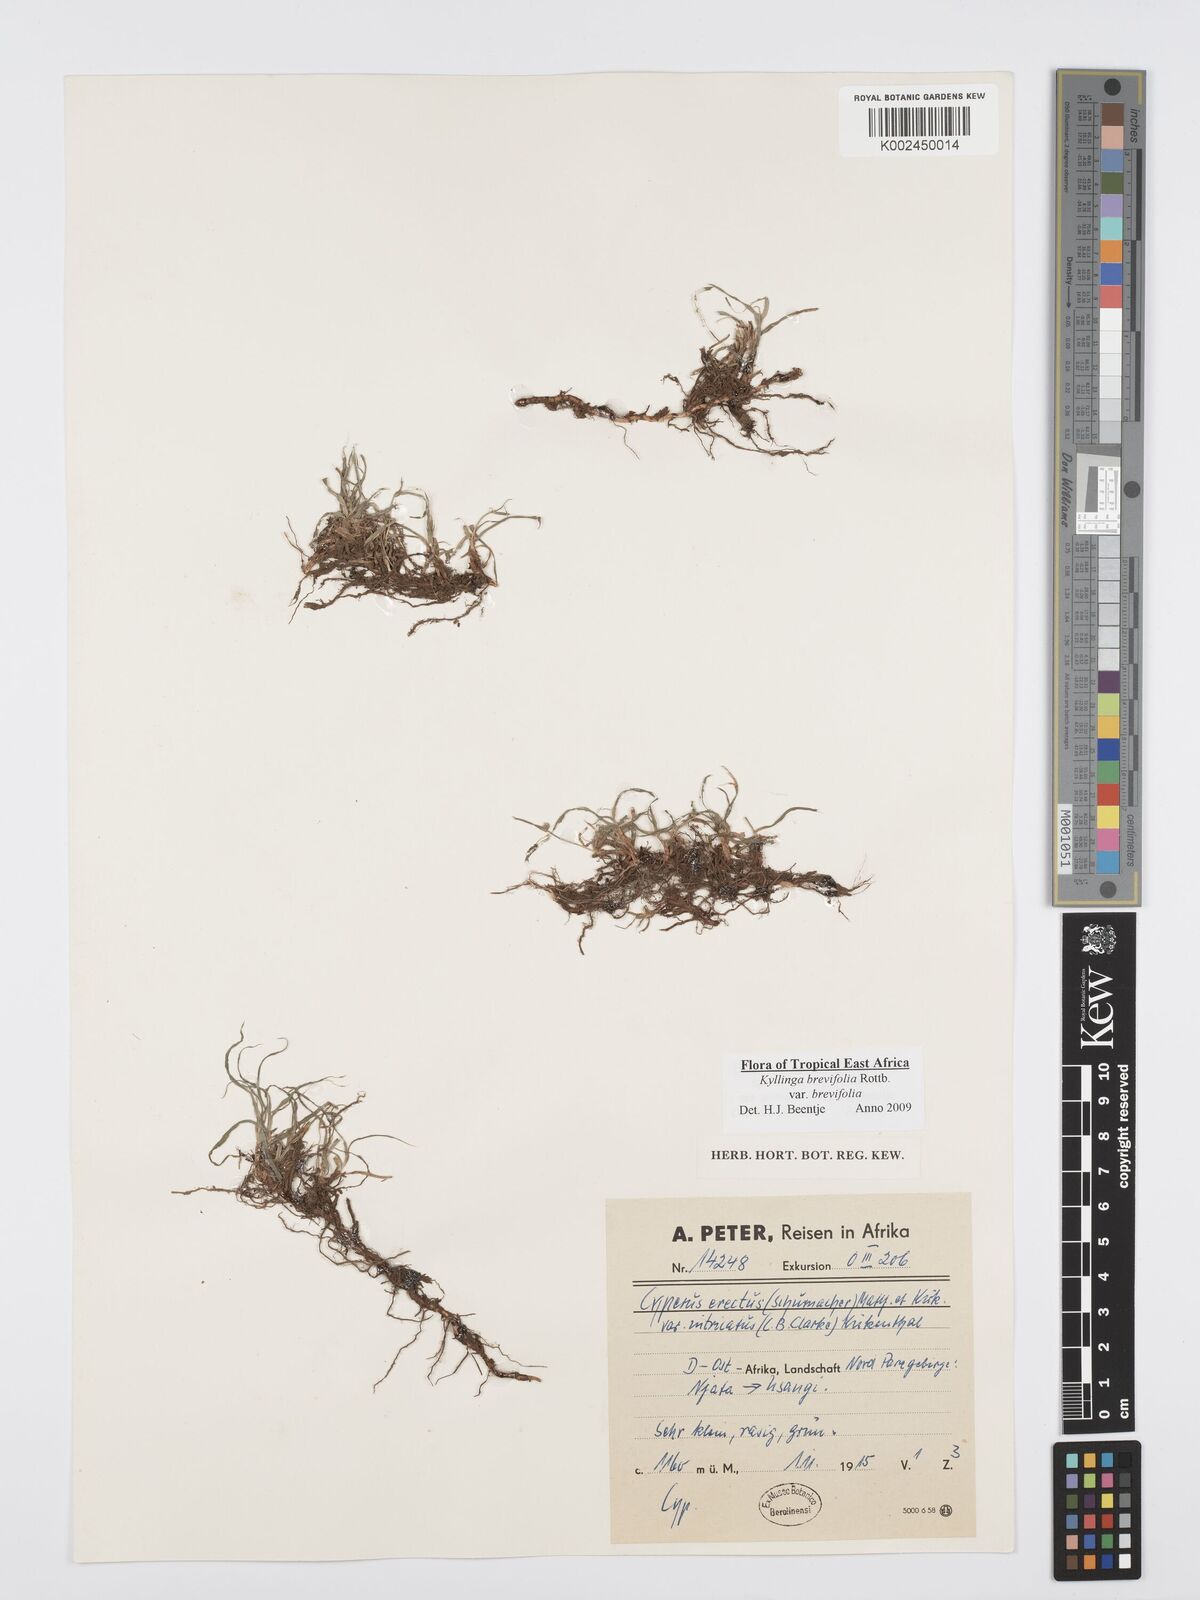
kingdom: Plantae
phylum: Tracheophyta
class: Liliopsida
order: Poales
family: Cyperaceae
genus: Cyperus
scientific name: Cyperus brevifolius
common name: Globe kyllinga
